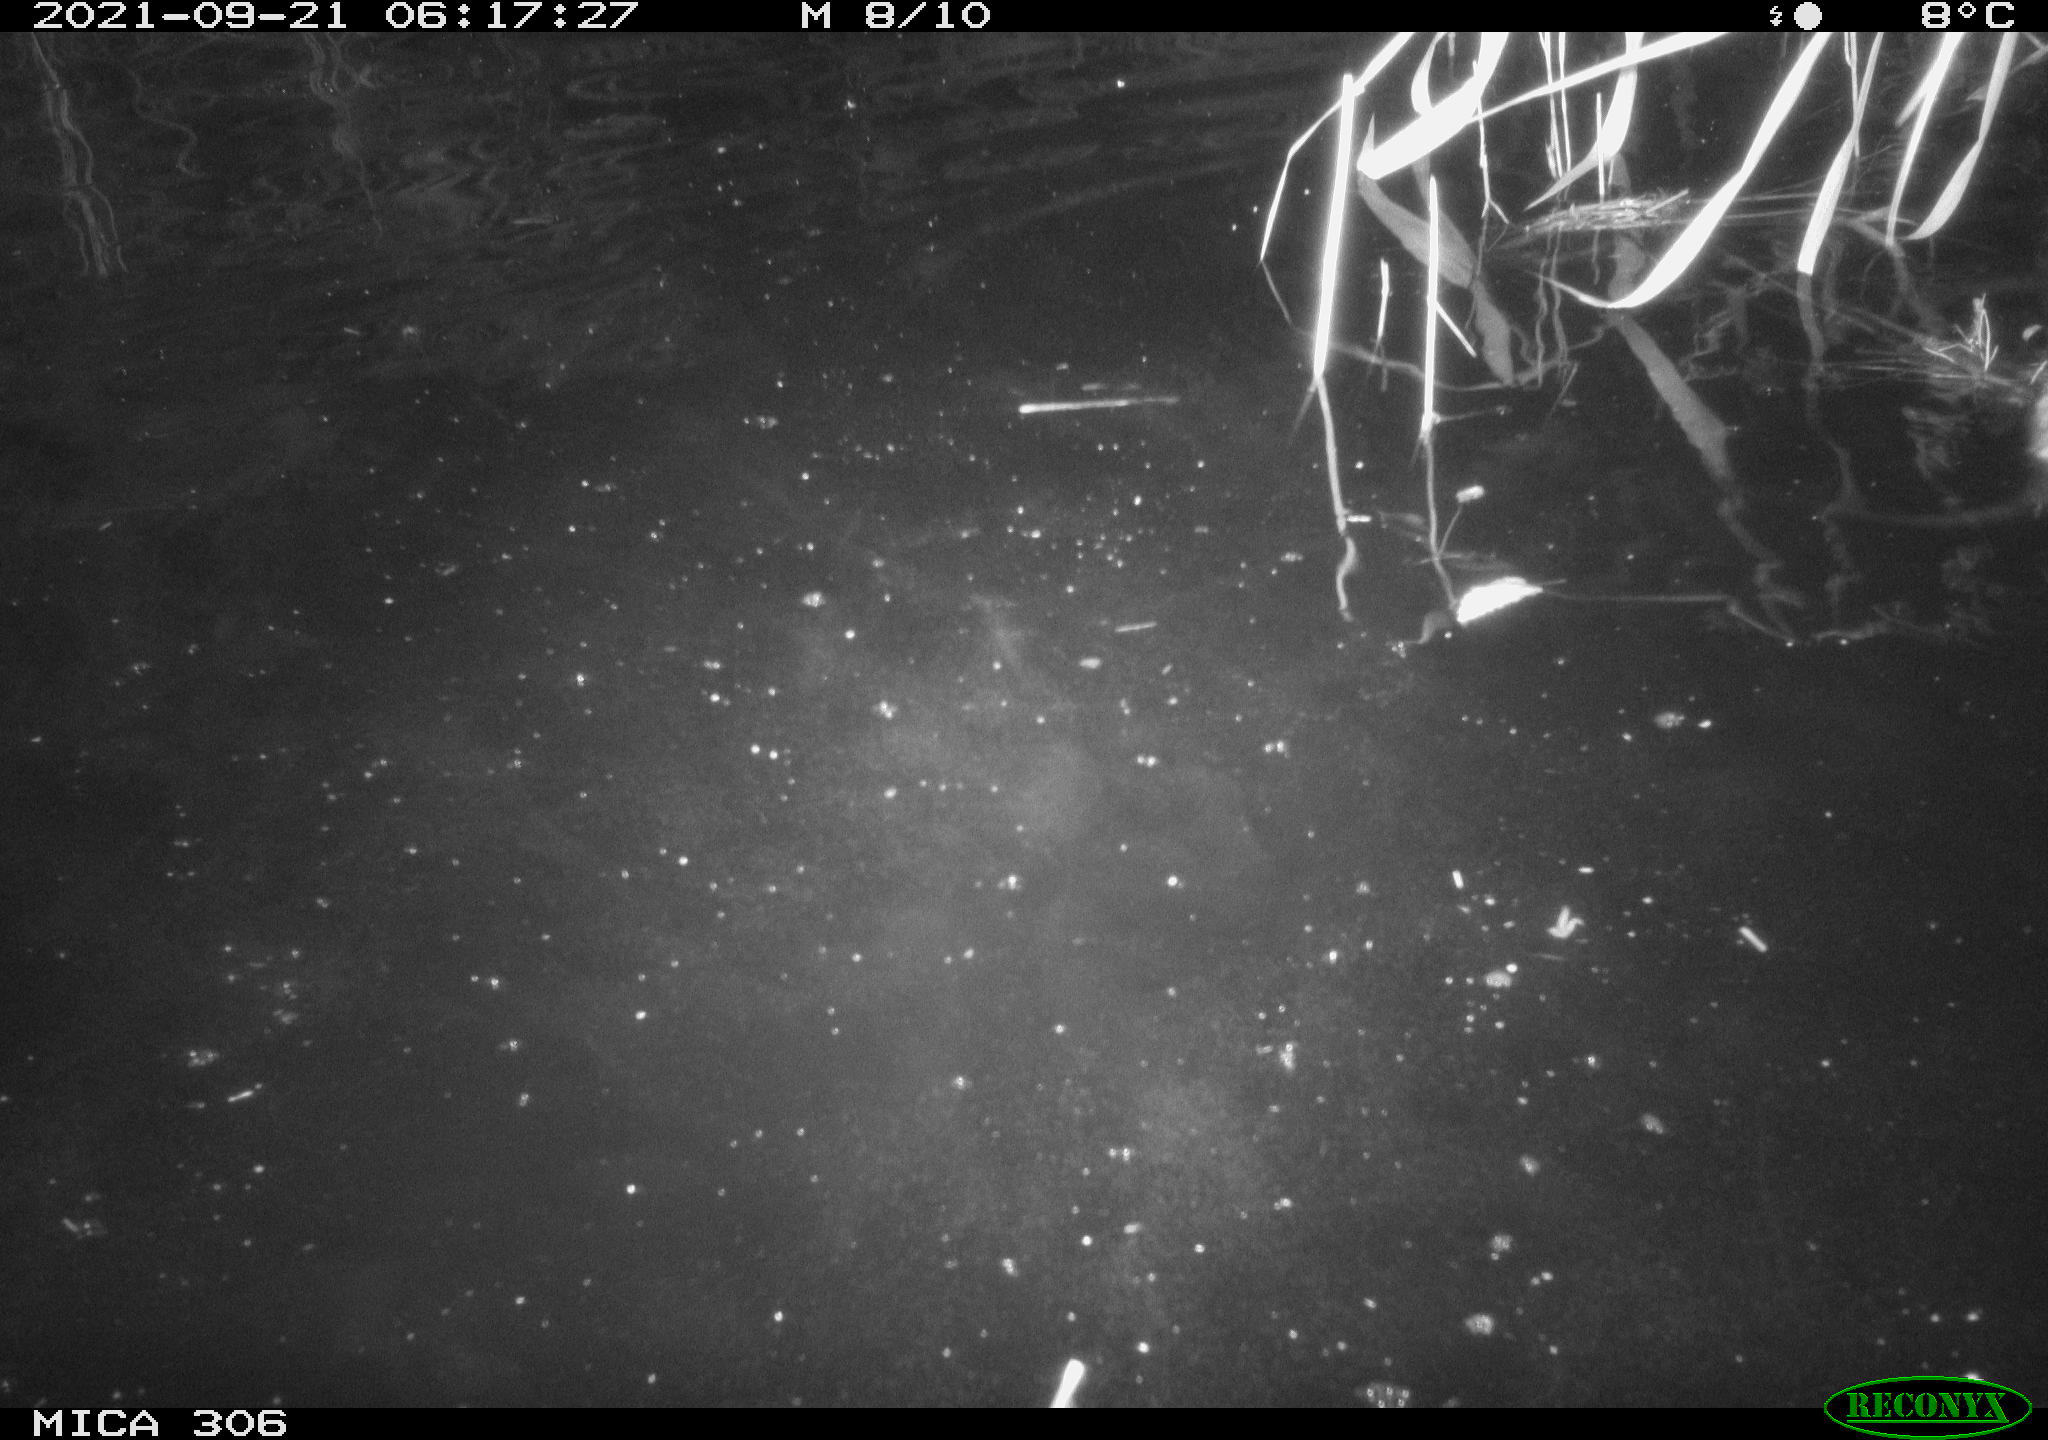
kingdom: Animalia
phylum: Chordata
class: Mammalia
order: Rodentia
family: Cricetidae
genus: Ondatra
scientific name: Ondatra zibethicus
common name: Muskrat
